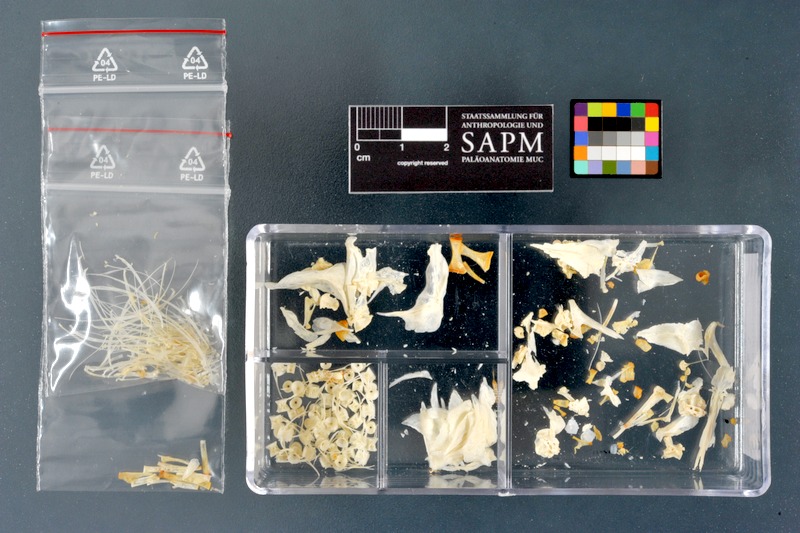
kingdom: Animalia
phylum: Chordata
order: Salmoniformes
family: Salmonidae
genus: Thymallus
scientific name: Thymallus thymallus
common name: Grayling
